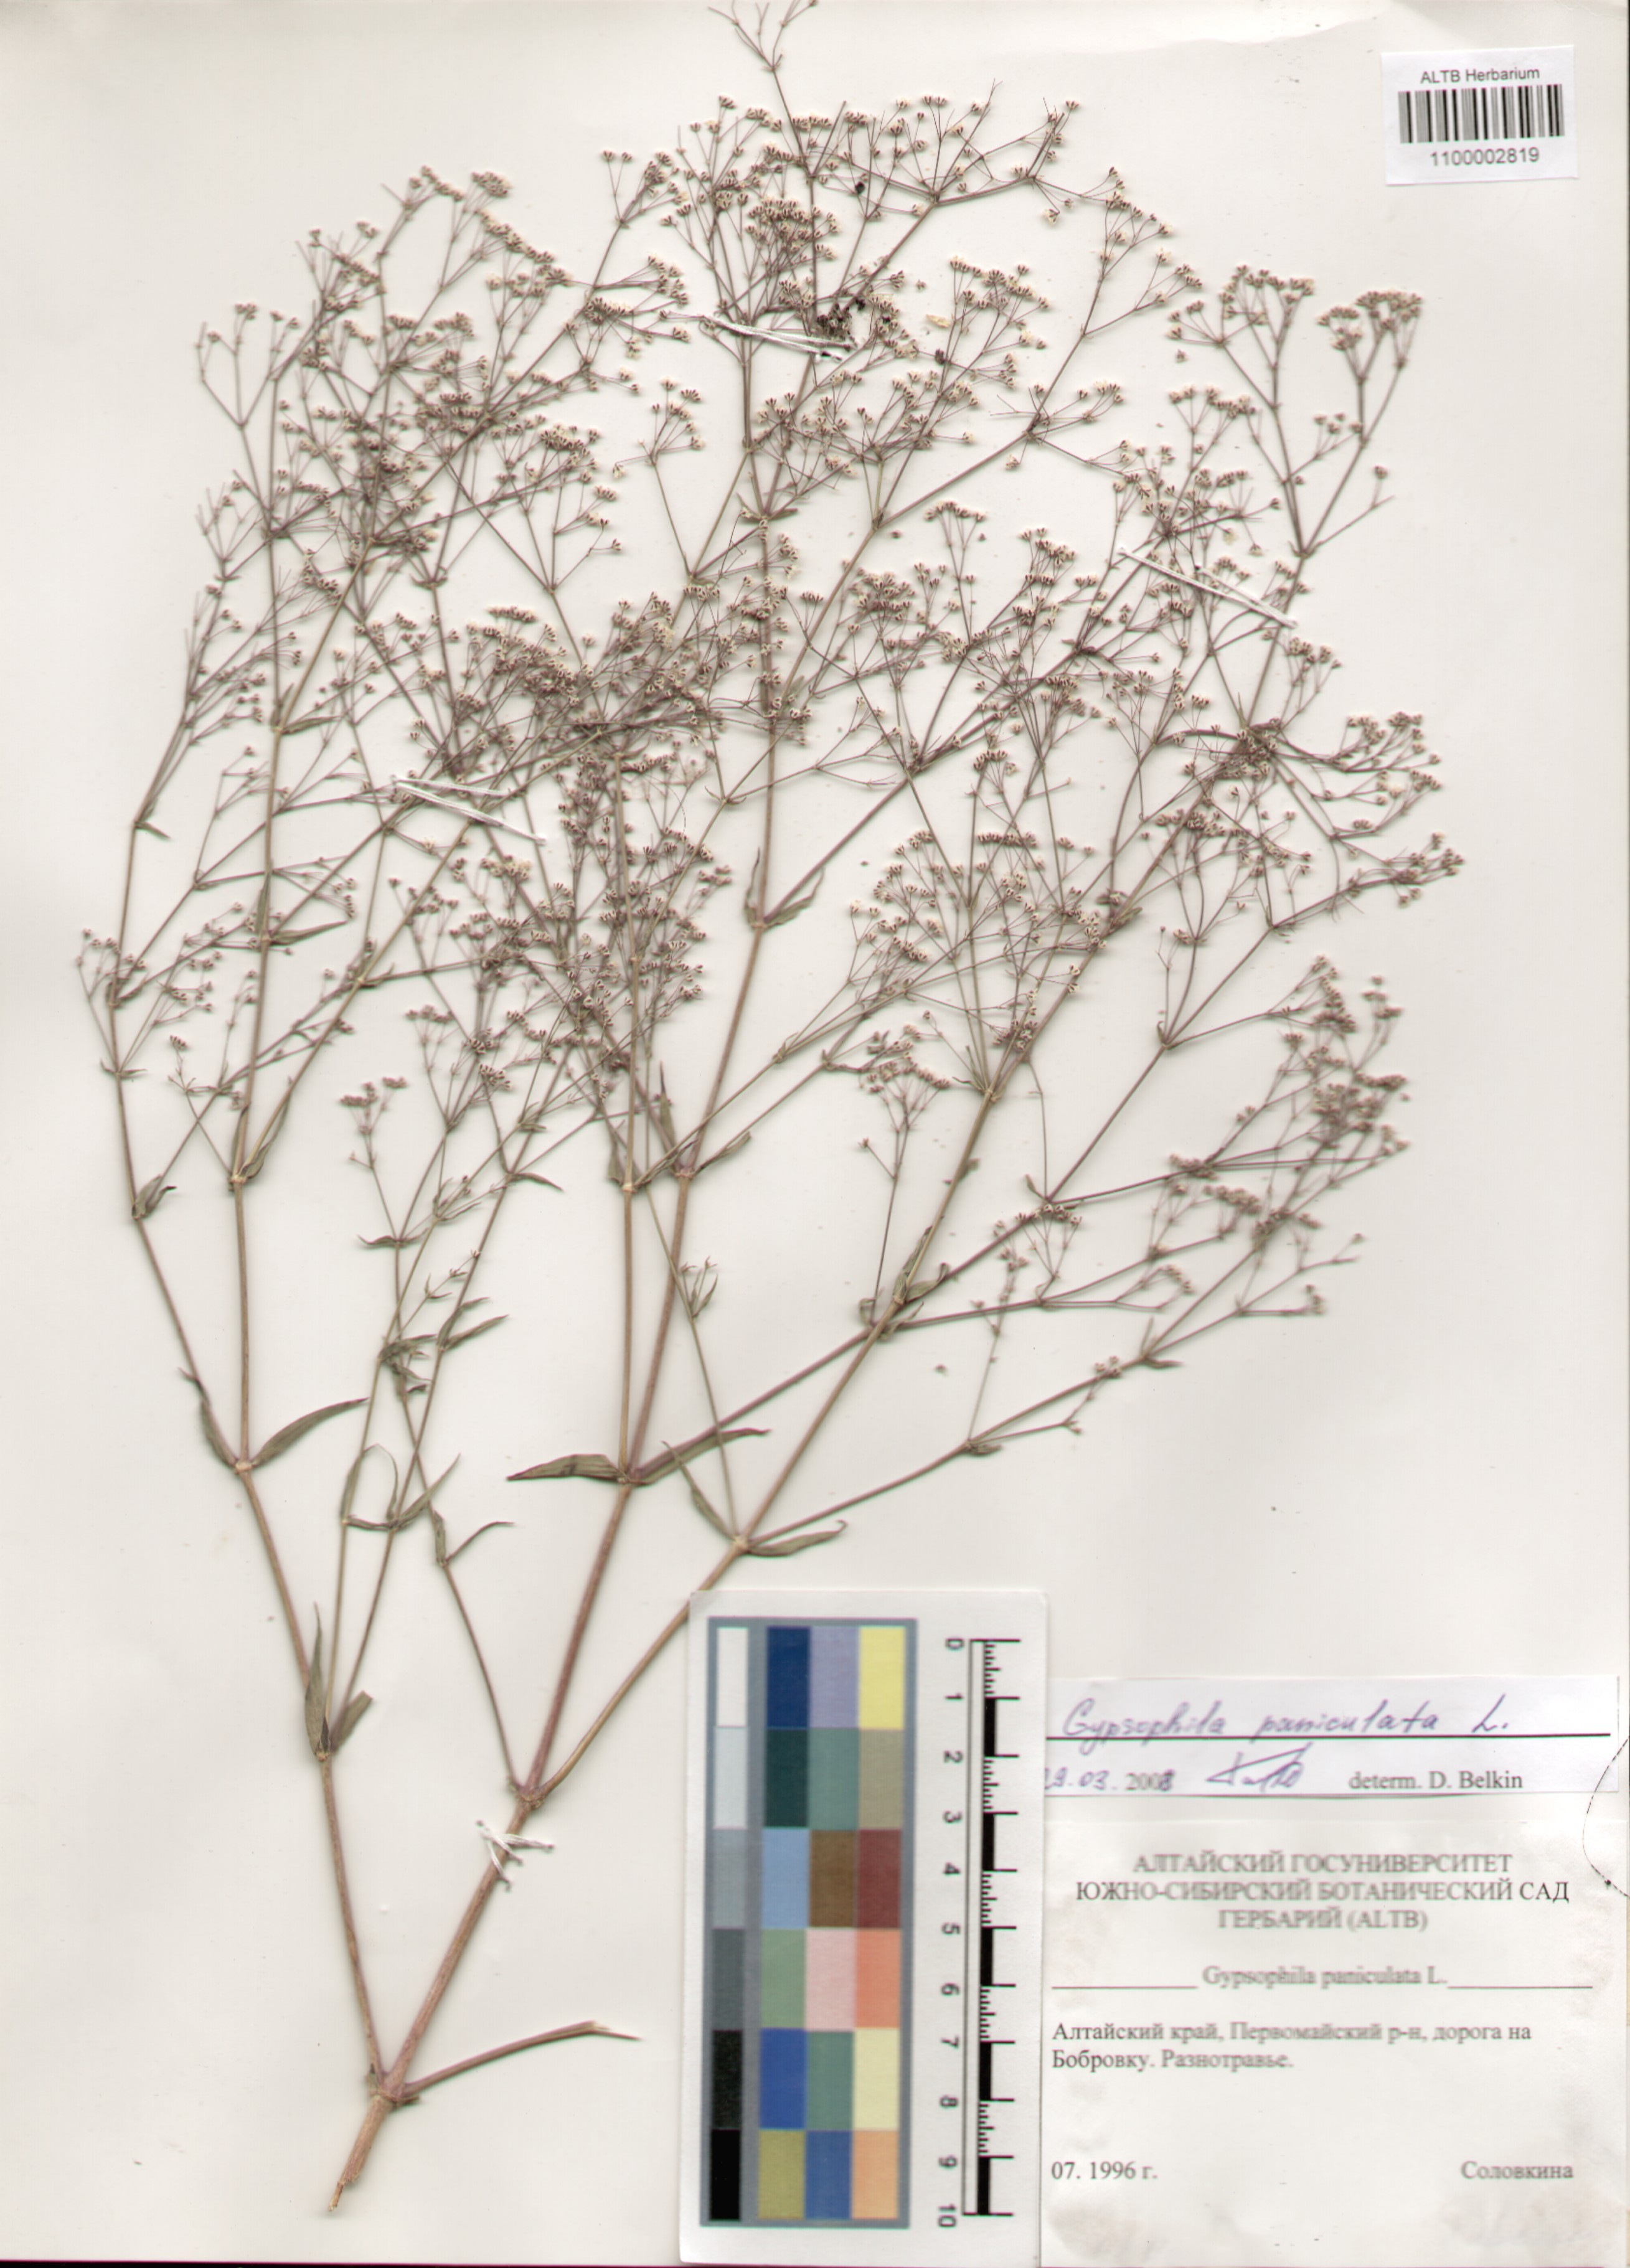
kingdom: Plantae
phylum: Tracheophyta
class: Magnoliopsida
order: Caryophyllales
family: Caryophyllaceae
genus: Gypsophila
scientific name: Gypsophila paniculata
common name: Baby's-breath
